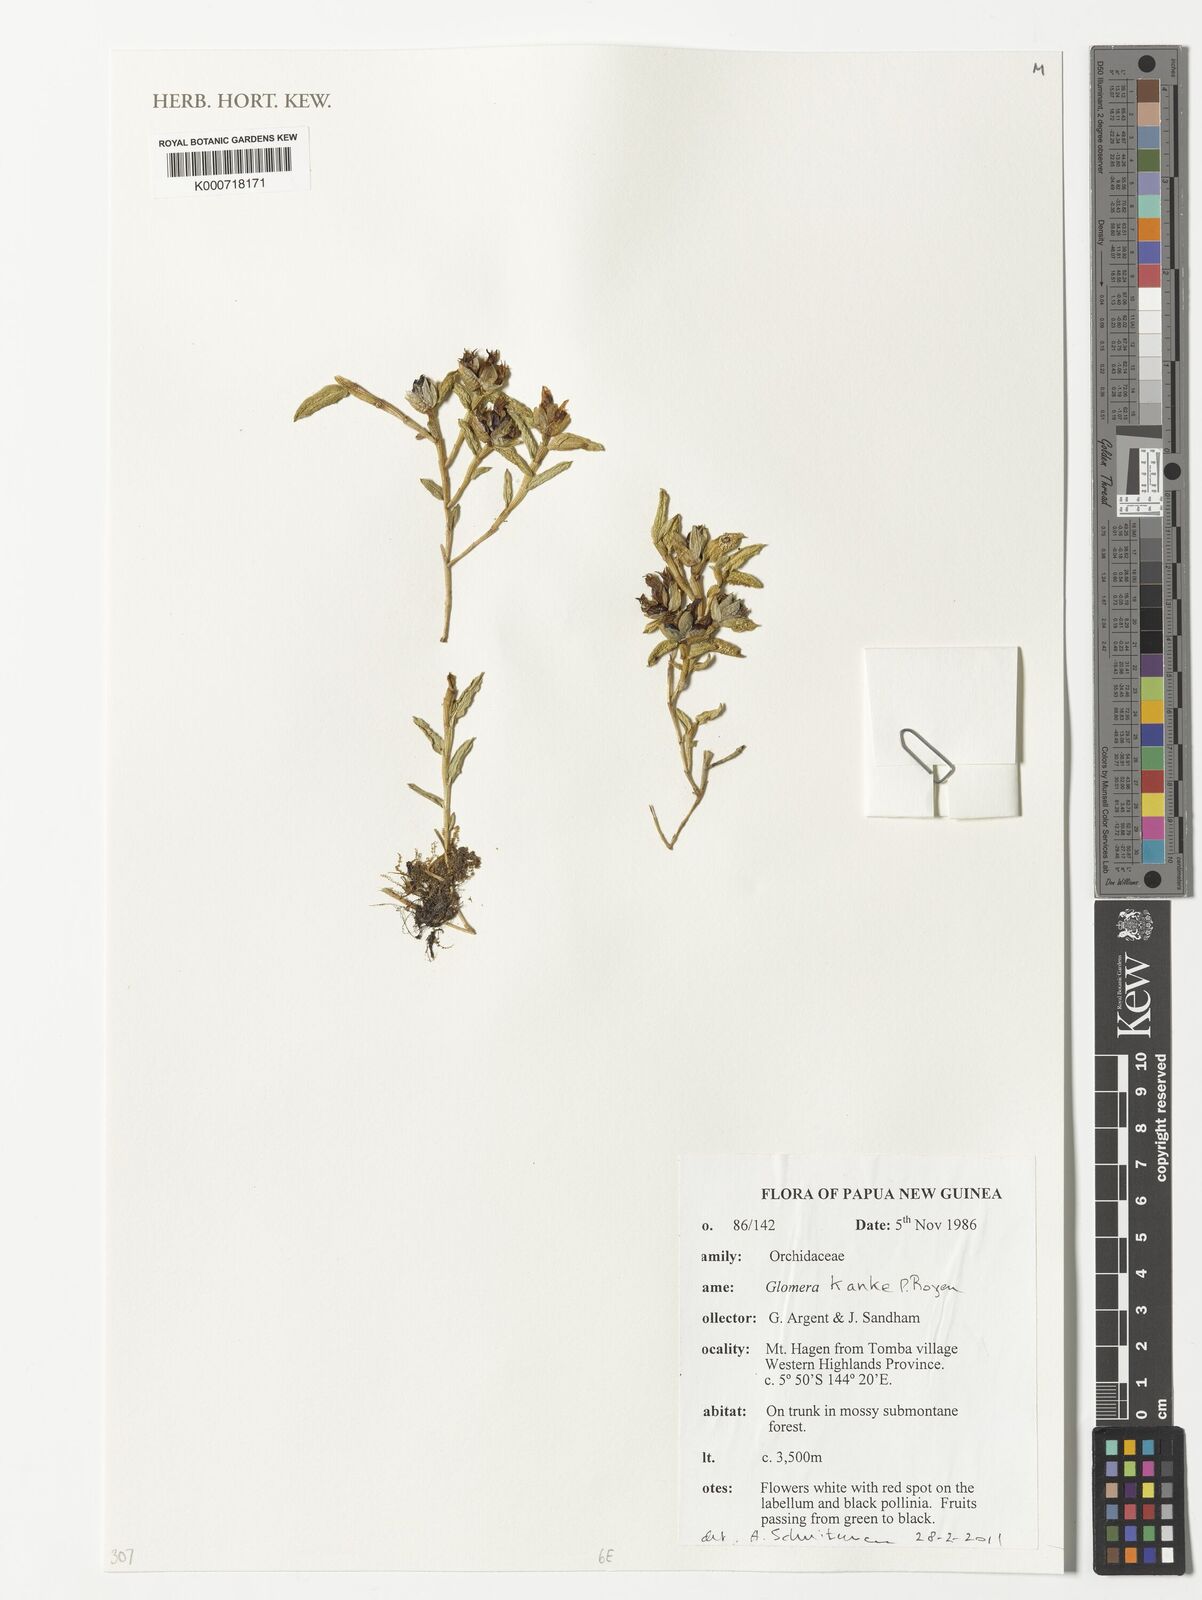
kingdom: Plantae
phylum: Tracheophyta
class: Liliopsida
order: Asparagales
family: Orchidaceae
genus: Glomera
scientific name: Glomera kanke
